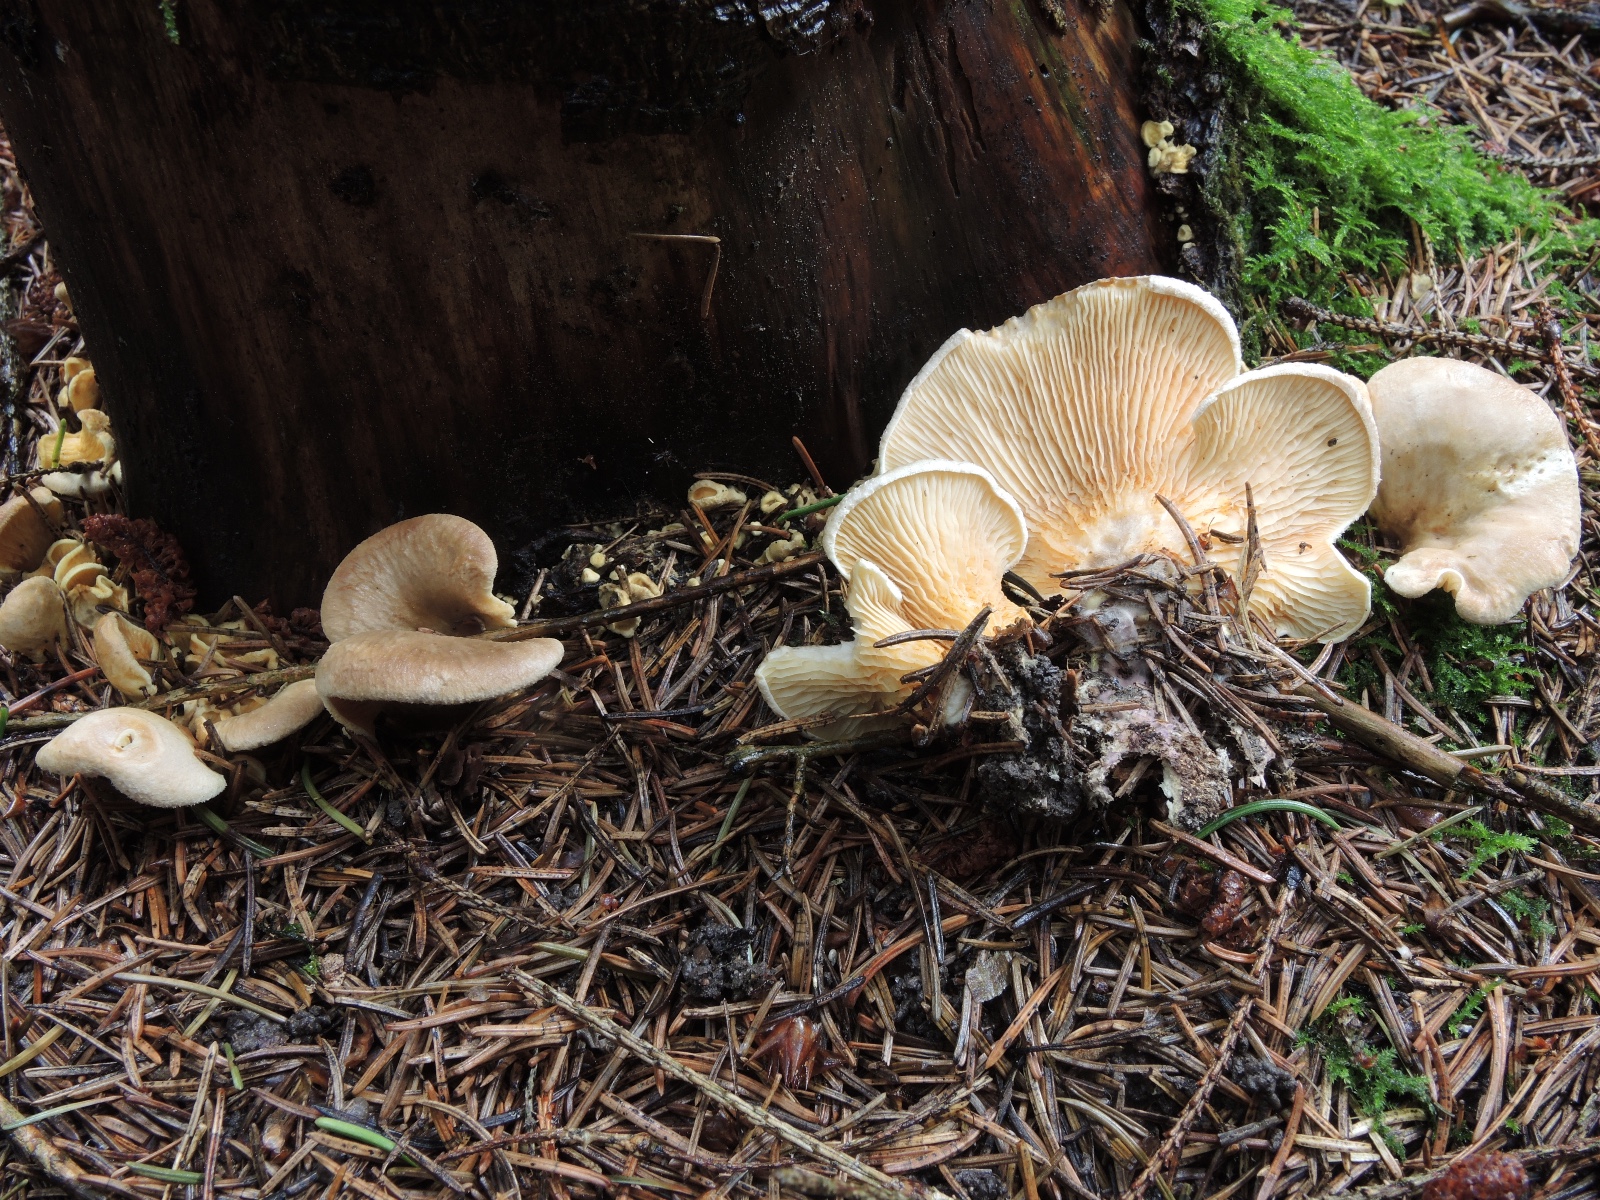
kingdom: Fungi
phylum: Basidiomycota
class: Agaricomycetes
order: Boletales
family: Tapinellaceae
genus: Tapinella
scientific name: Tapinella panuoides
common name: tømmer-viftesvamp
